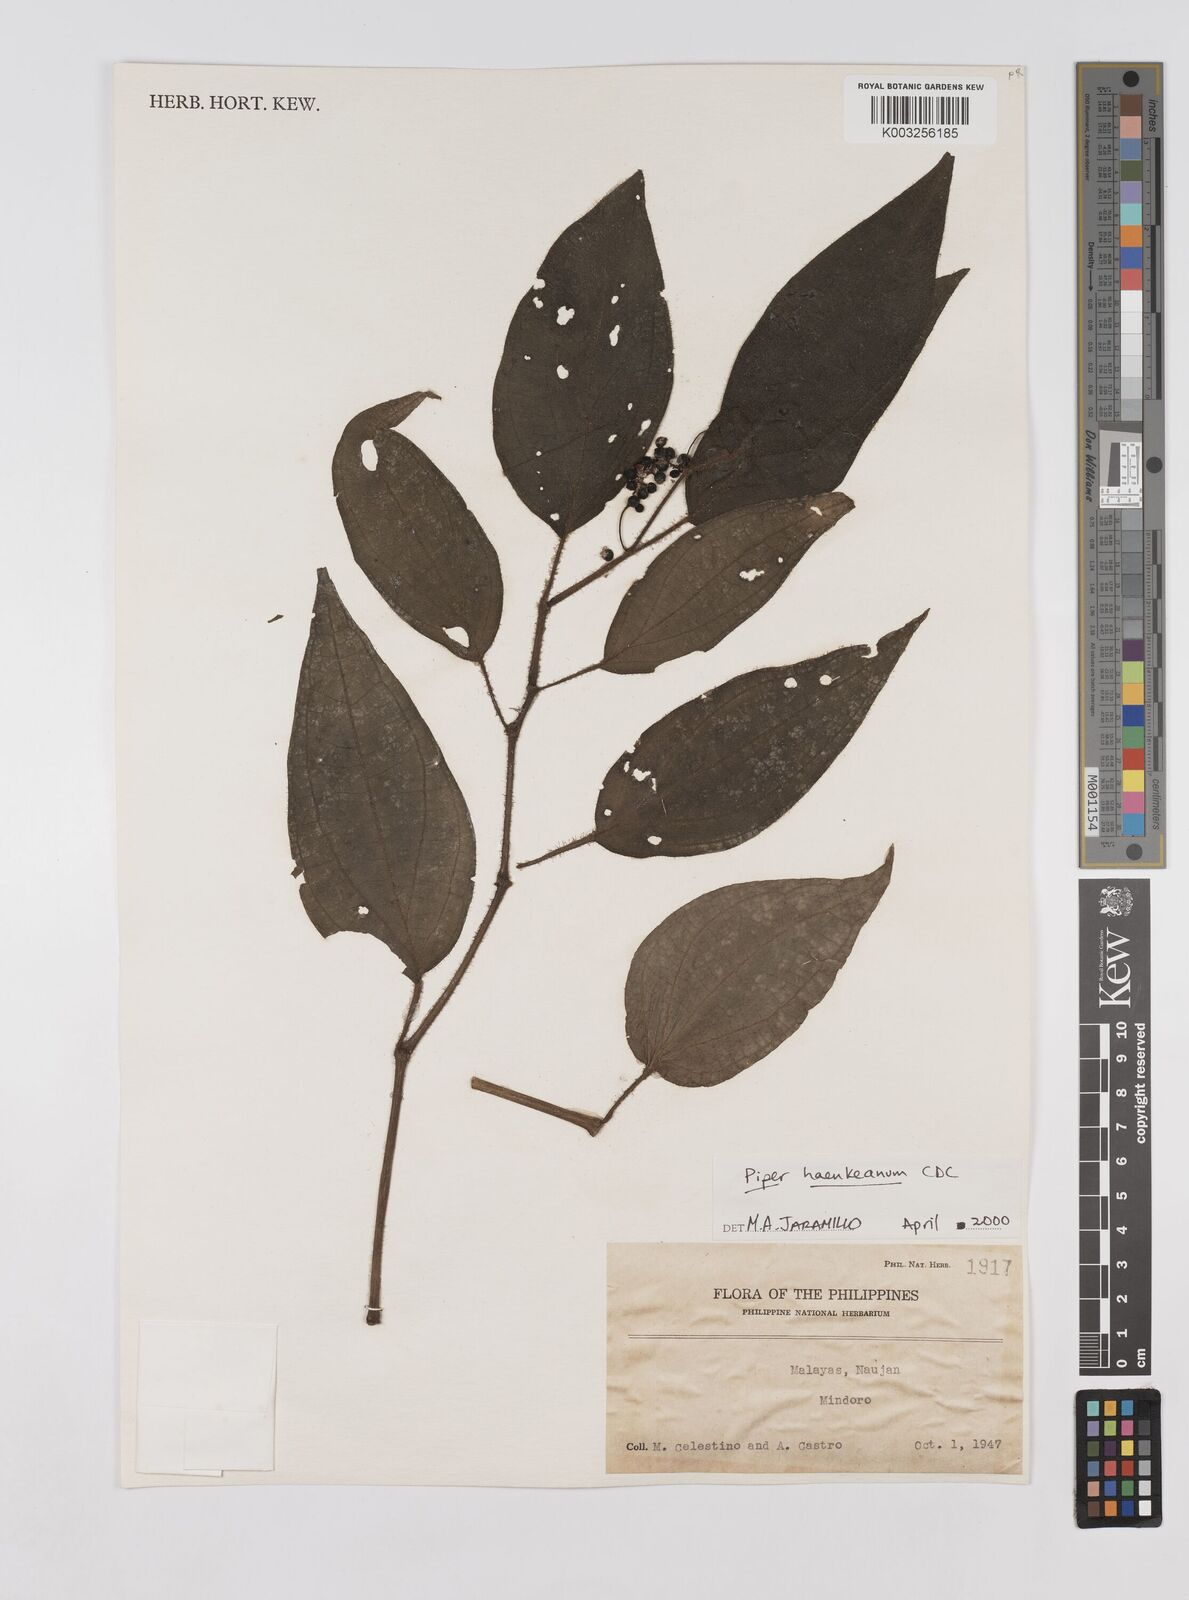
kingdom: Plantae
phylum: Tracheophyta
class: Magnoliopsida
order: Piperales
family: Piperaceae
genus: Piper
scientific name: Piper lanatum
